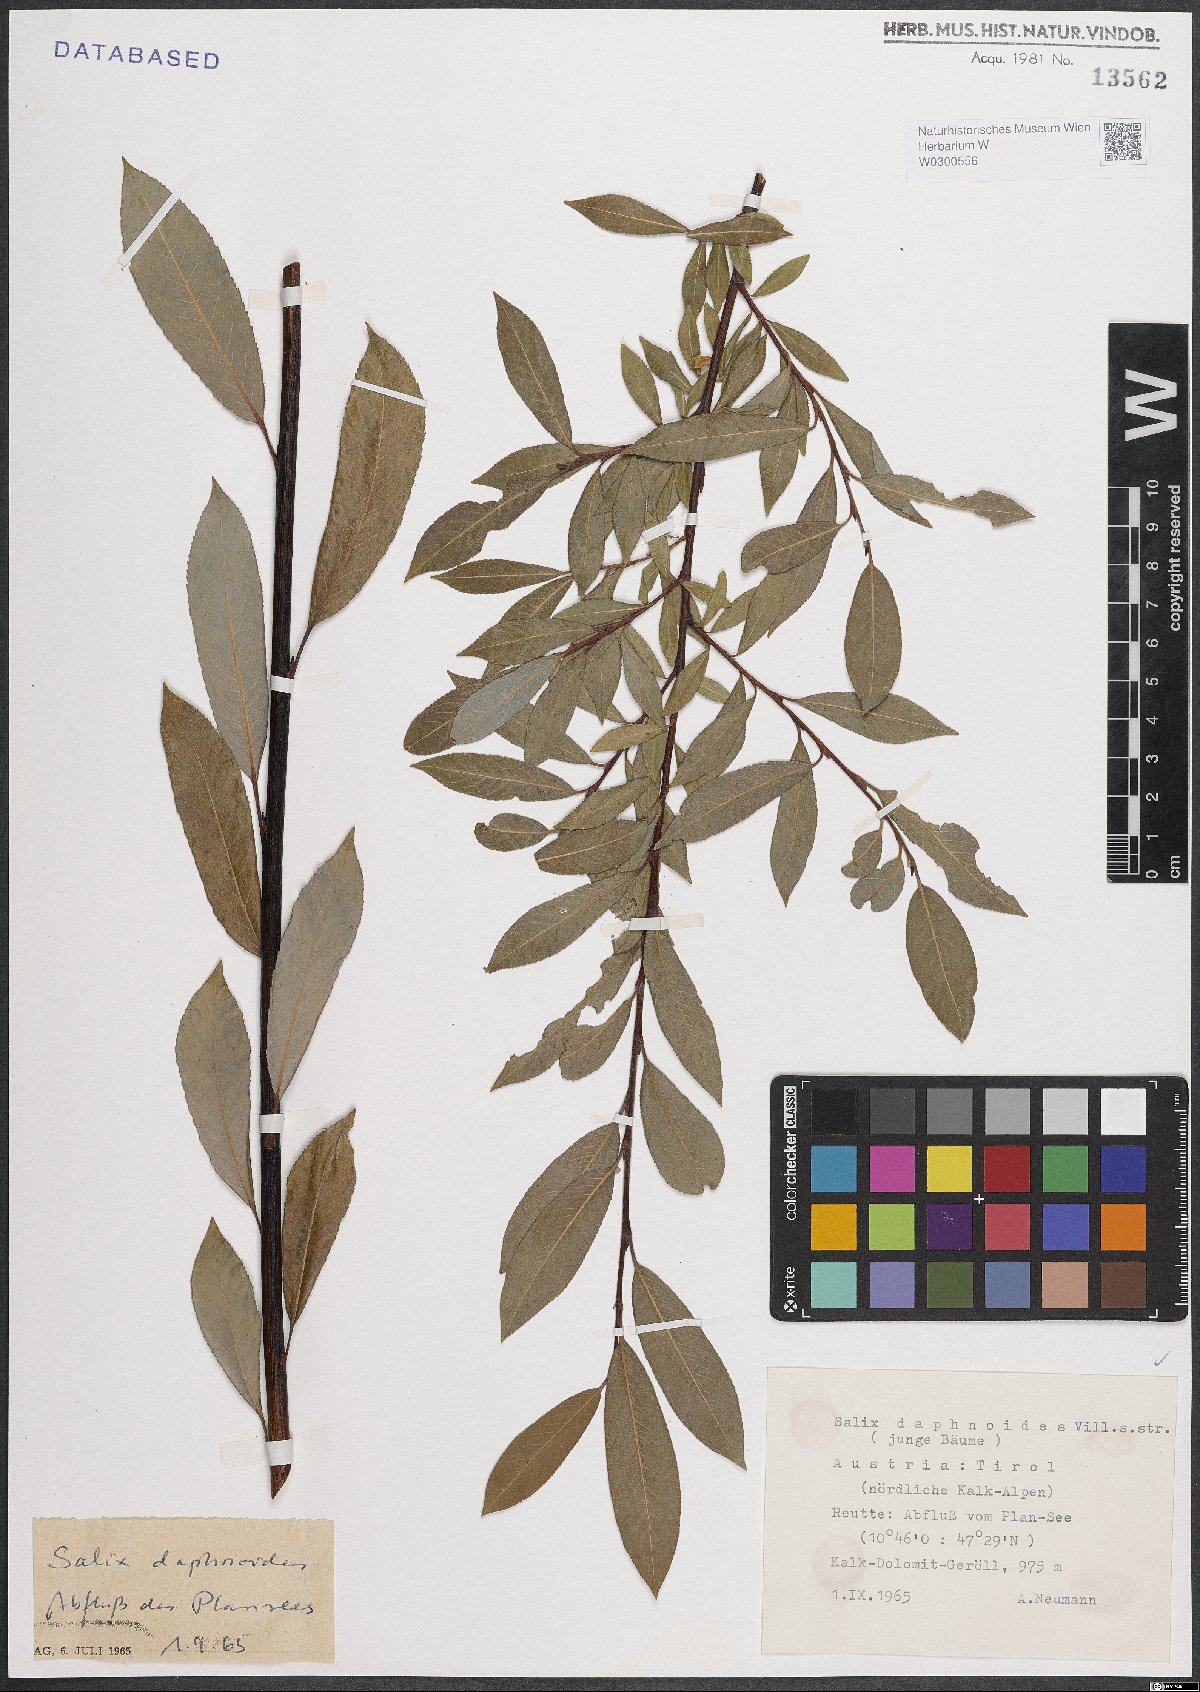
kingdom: Plantae
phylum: Tracheophyta
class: Magnoliopsida
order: Malpighiales
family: Salicaceae
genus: Salix
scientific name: Salix daphnoides
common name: European violet-willow
